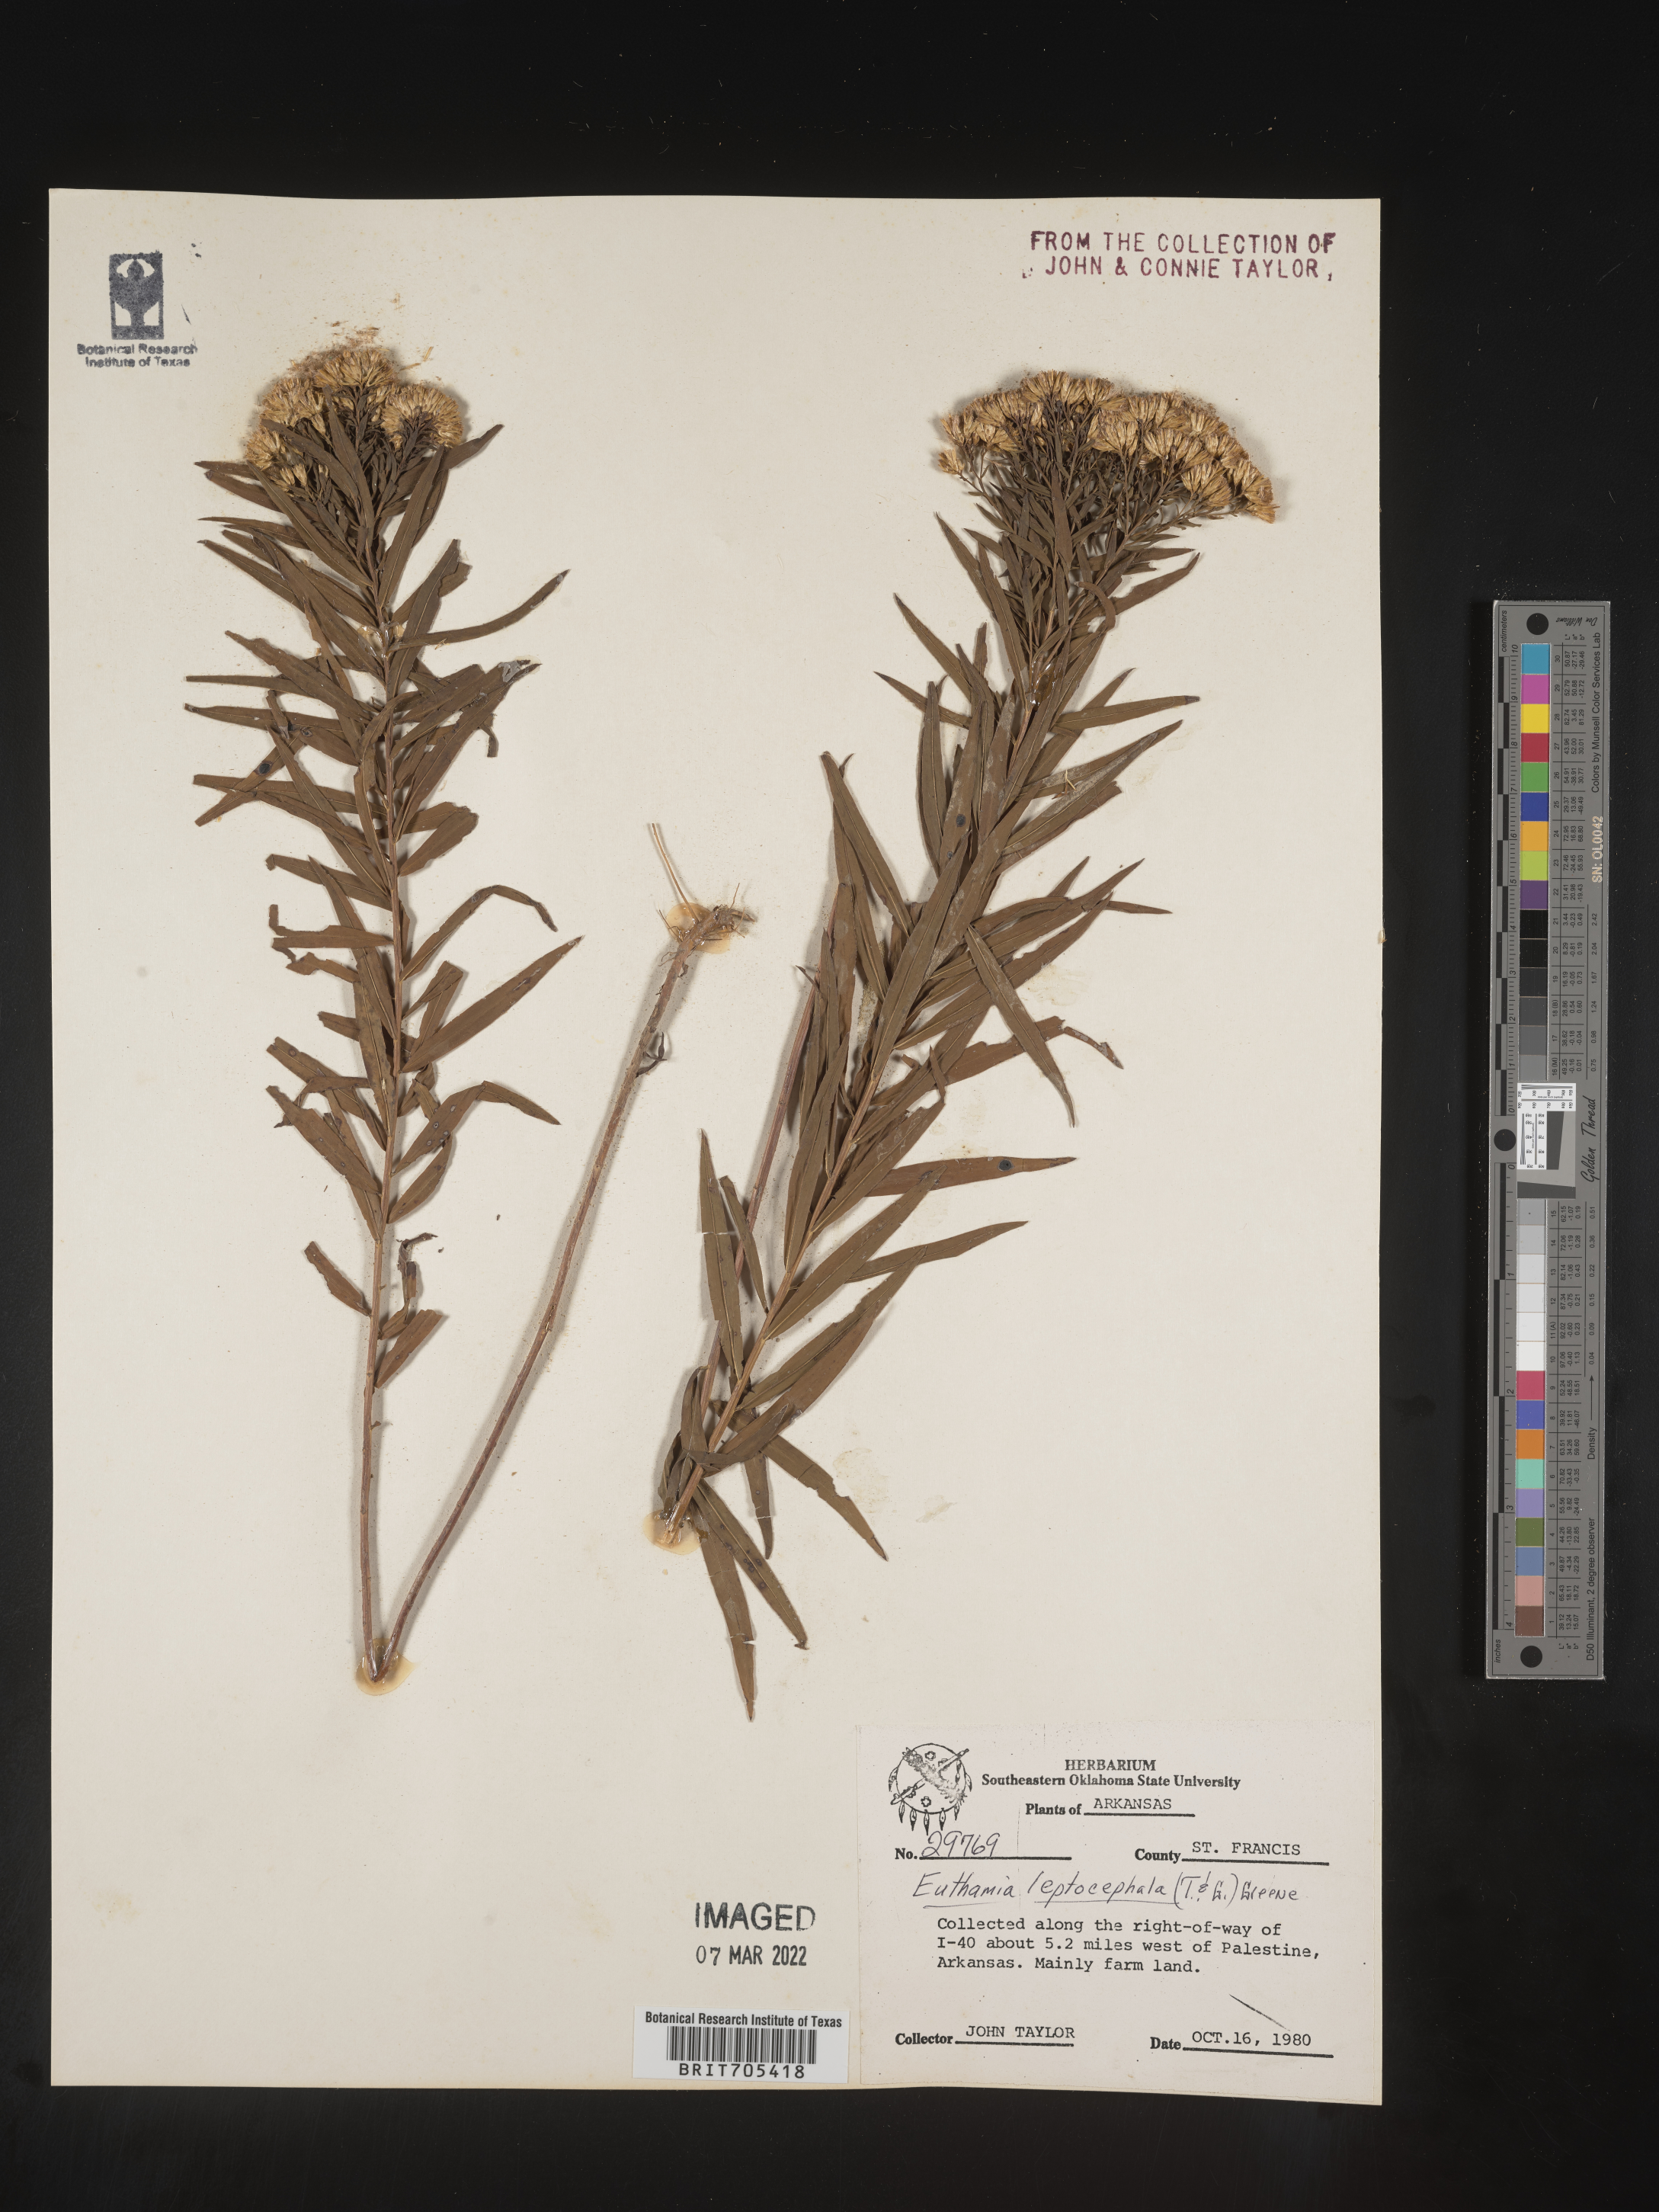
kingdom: Plantae
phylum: Tracheophyta
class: Magnoliopsida
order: Asterales
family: Asteraceae
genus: Euthamia
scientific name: Euthamia leptocephala
